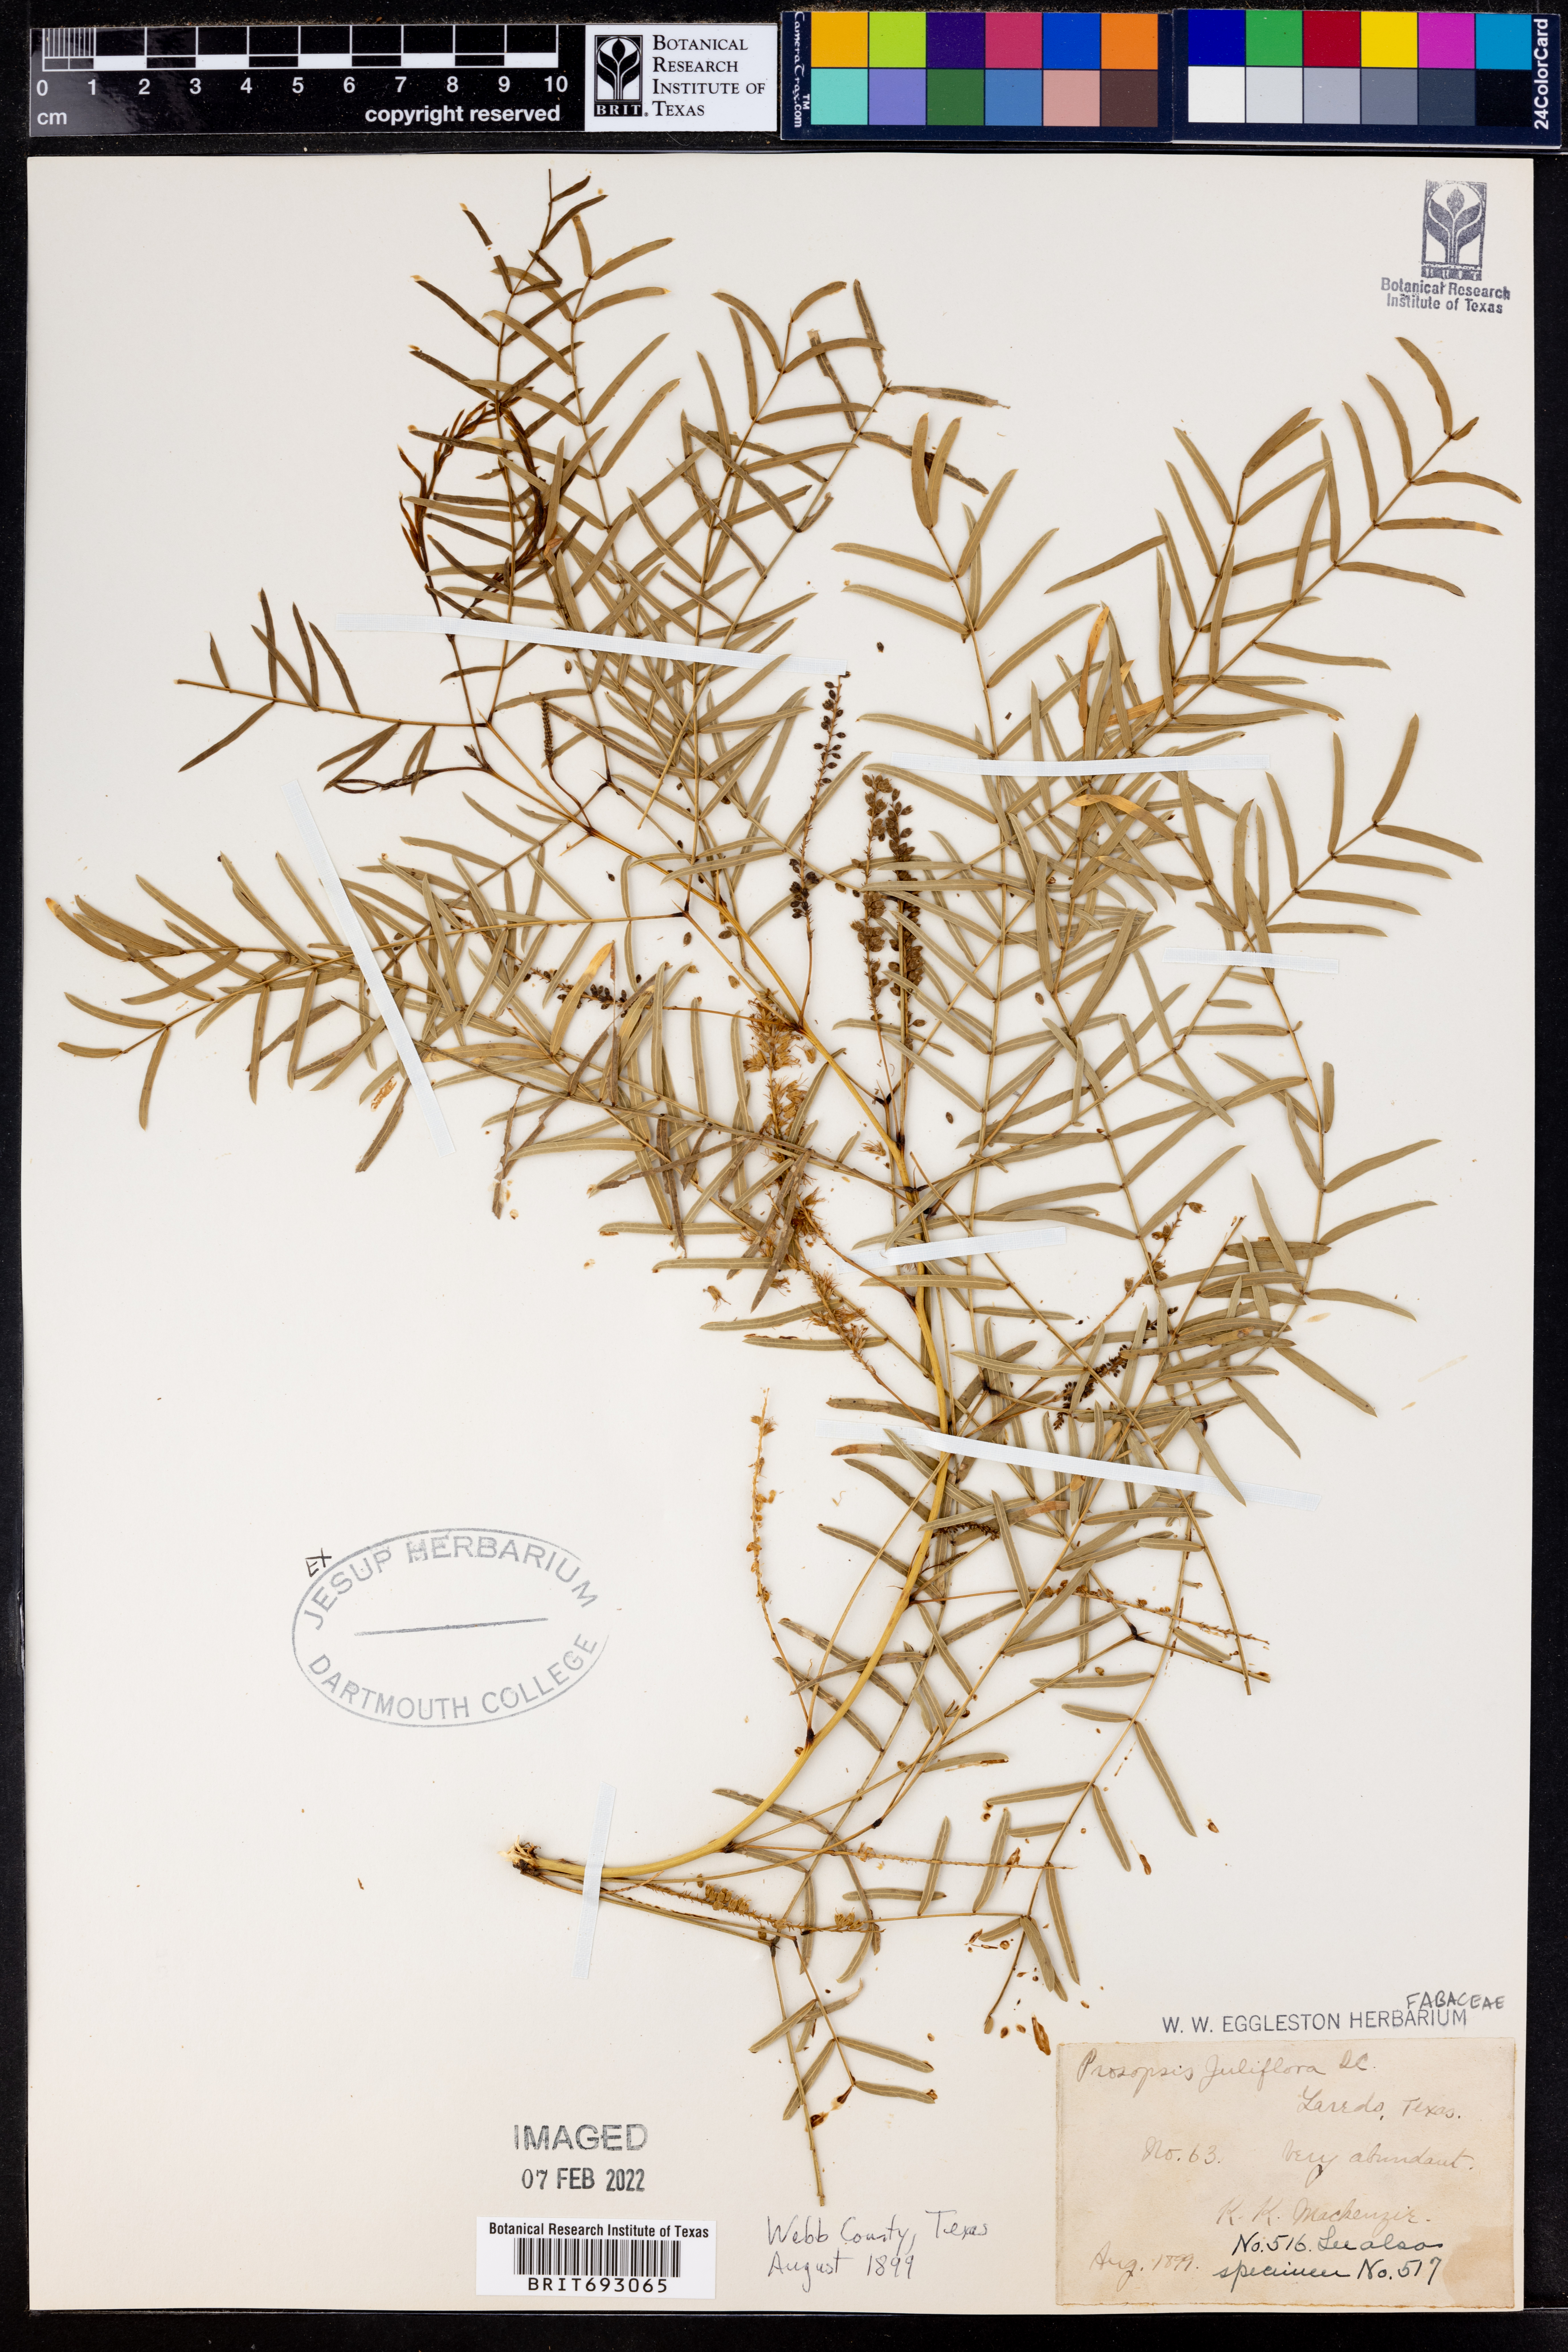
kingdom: Plantae
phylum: Tracheophyta
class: Magnoliopsida
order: Fabales
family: Fabaceae
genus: Prosopis
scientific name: Prosopis juliflora
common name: Mesquite
